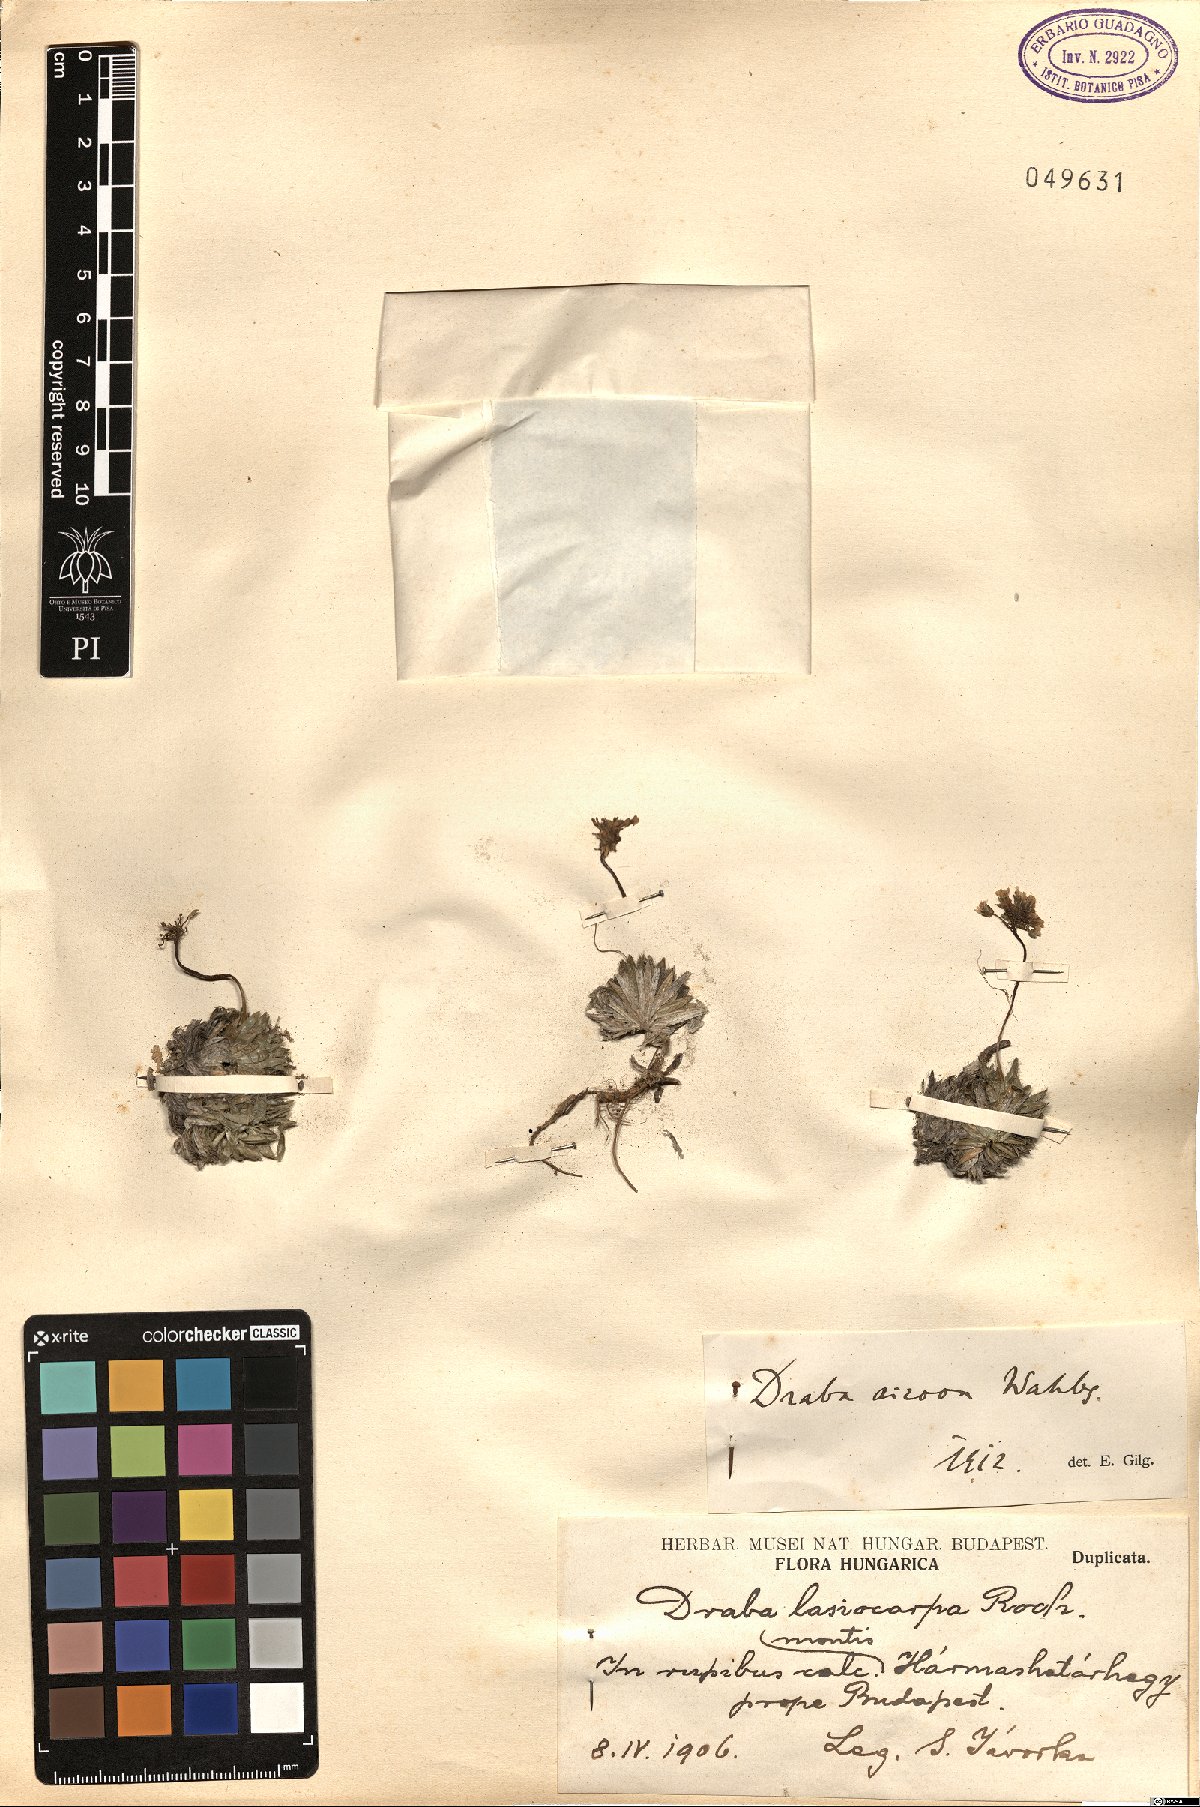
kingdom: Plantae
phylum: Tracheophyta
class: Magnoliopsida
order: Brassicales
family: Brassicaceae
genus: Draba
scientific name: Draba lasiocarpa
